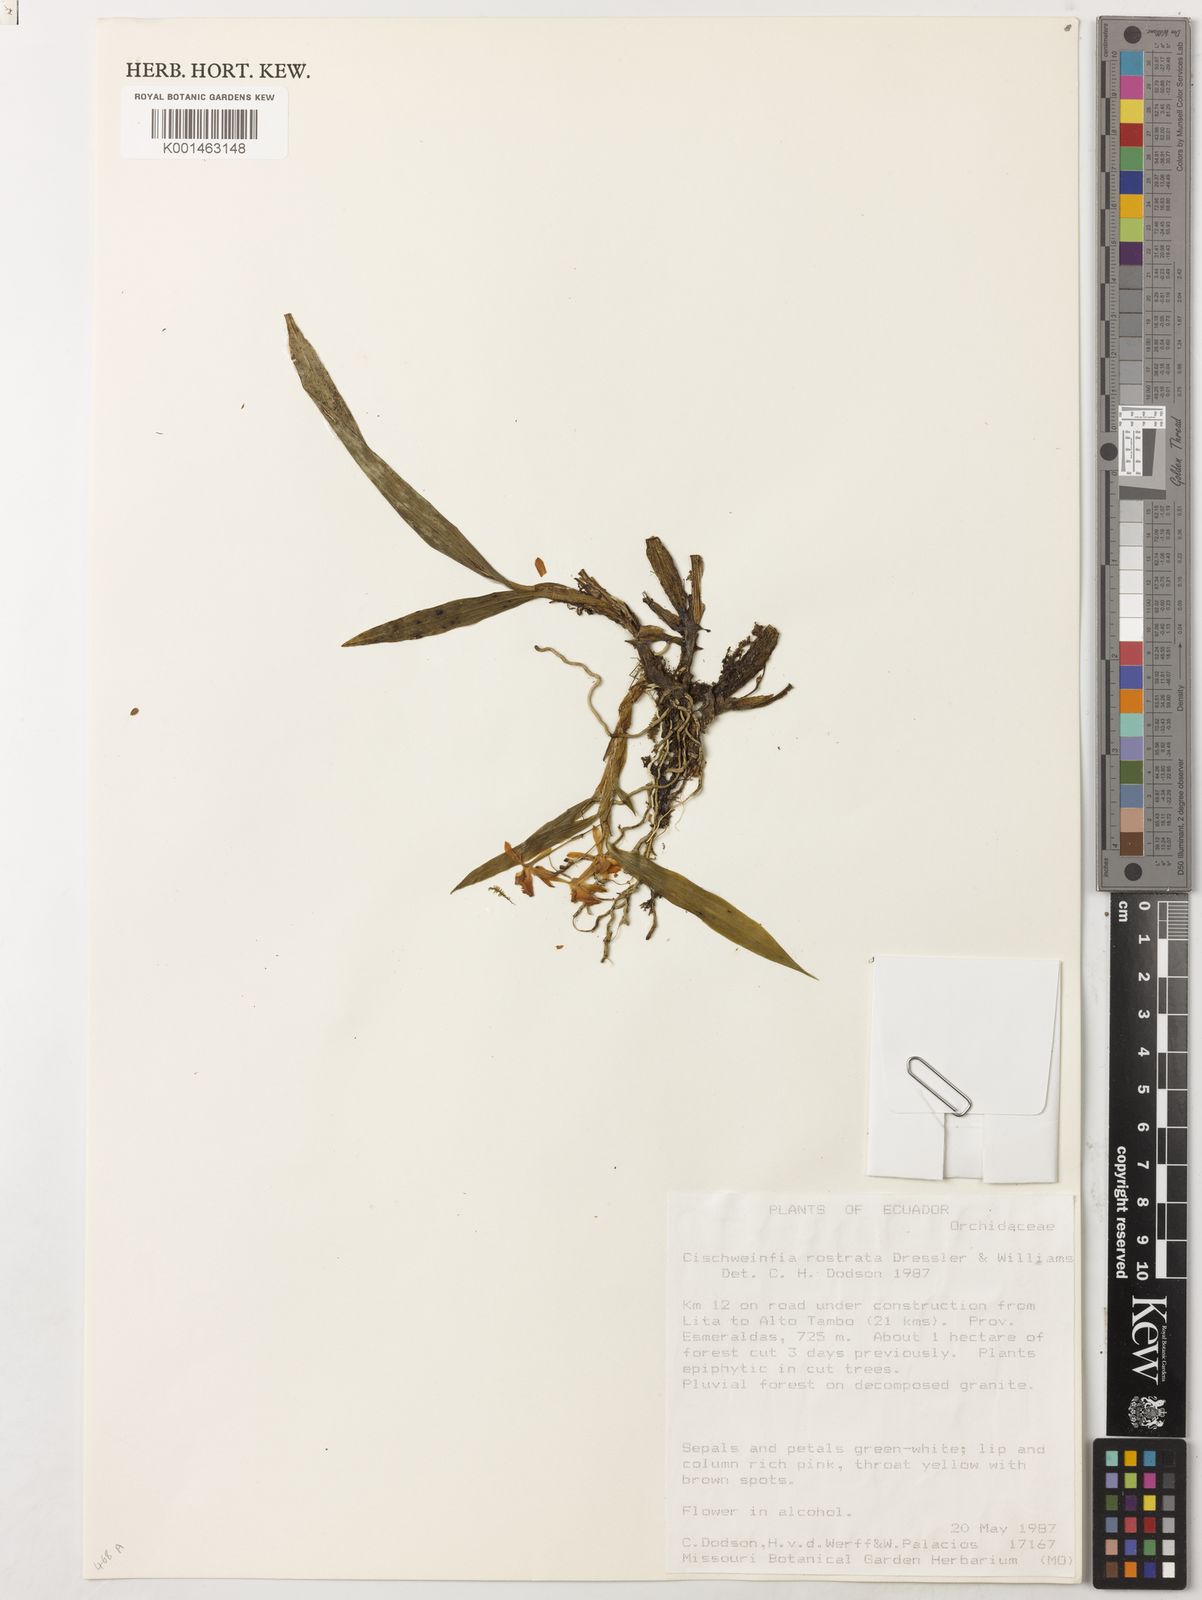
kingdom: Plantae
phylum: Tracheophyta
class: Liliopsida
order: Asparagales
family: Orchidaceae
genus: Cischweinfia
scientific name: Cischweinfia rostrata
